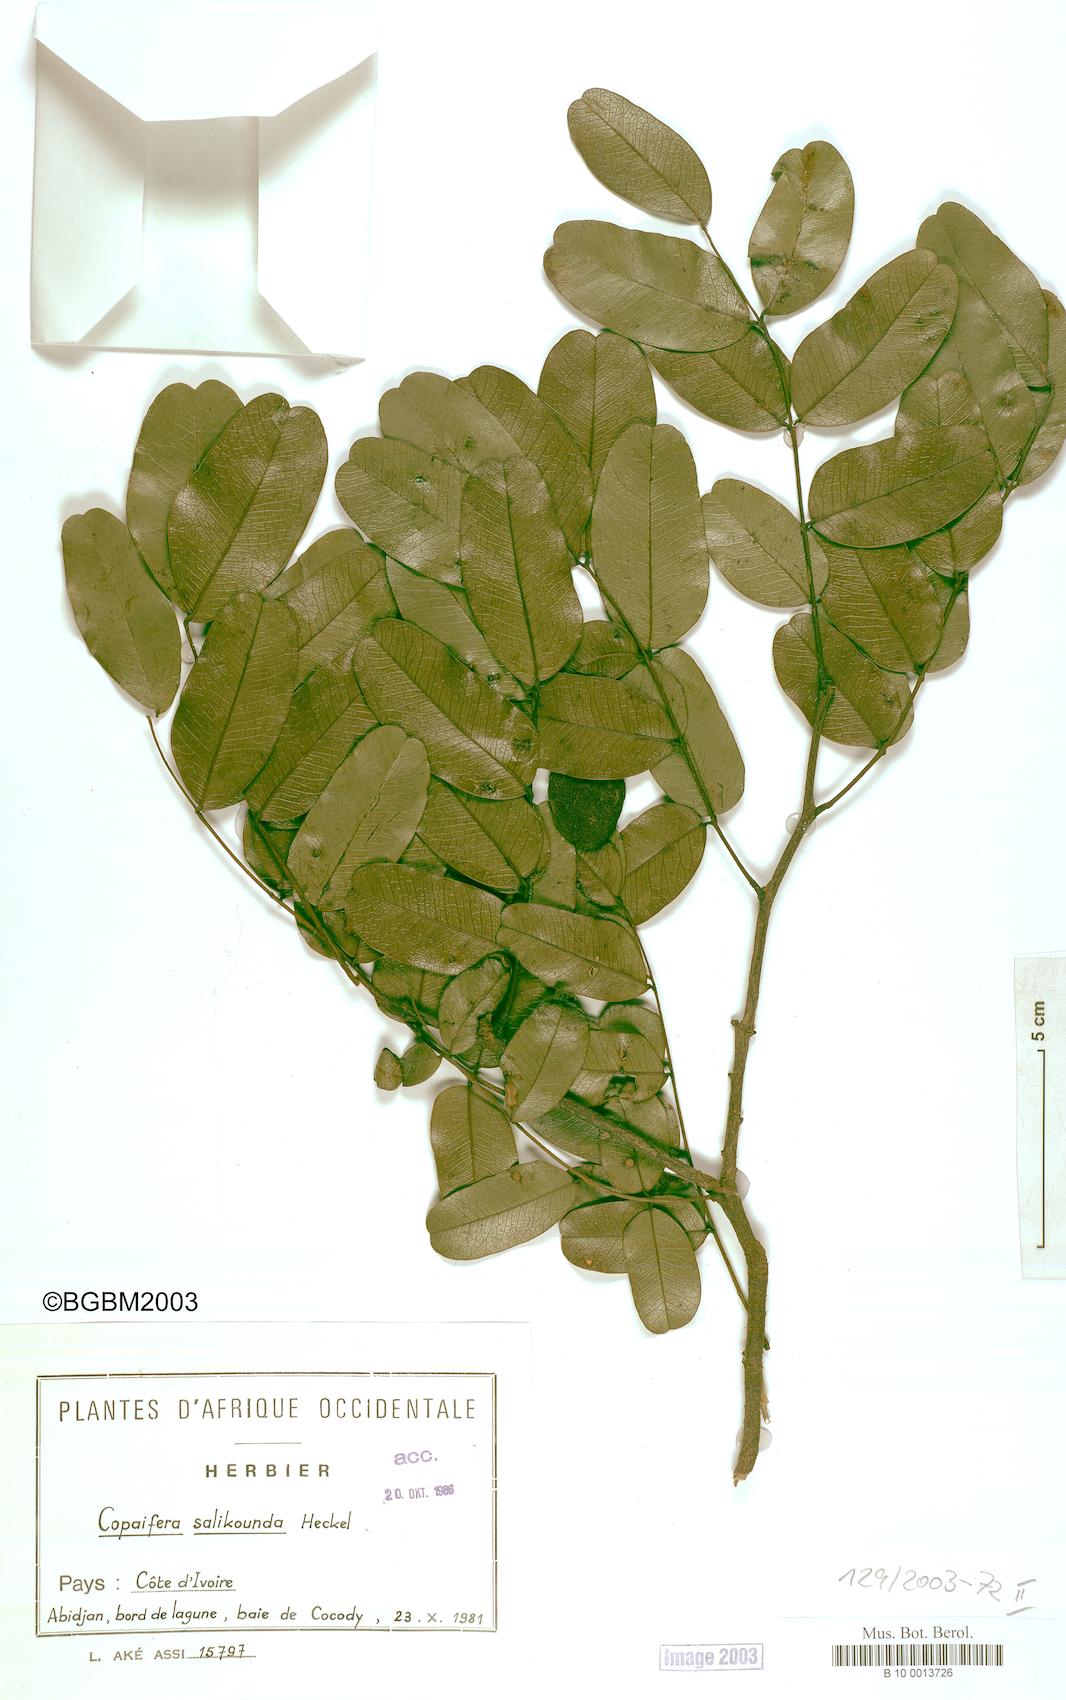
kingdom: Plantae
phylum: Tracheophyta
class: Magnoliopsida
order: Fabales
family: Fabaceae
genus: Copaifera
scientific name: Copaifera salikounda
